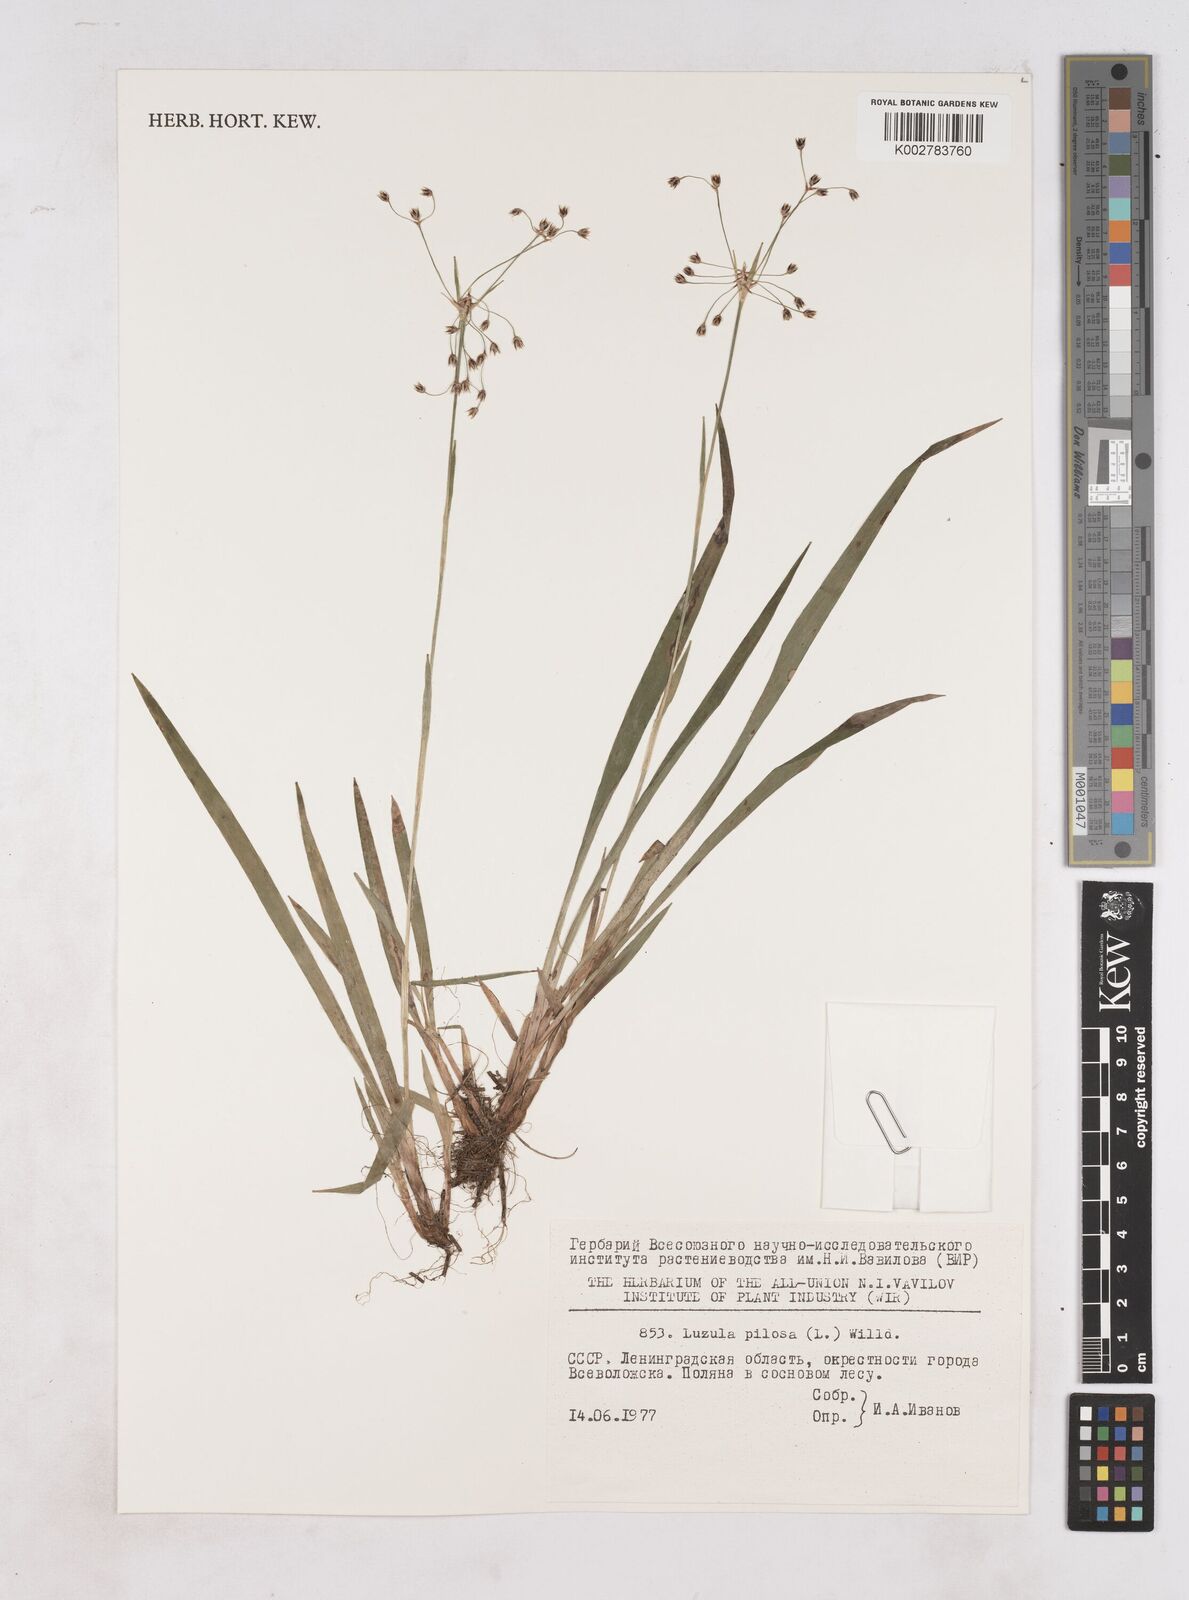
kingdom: Plantae
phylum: Tracheophyta
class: Liliopsida
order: Poales
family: Juncaceae
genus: Luzula
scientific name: Luzula pilosa
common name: Hairy wood-rush
